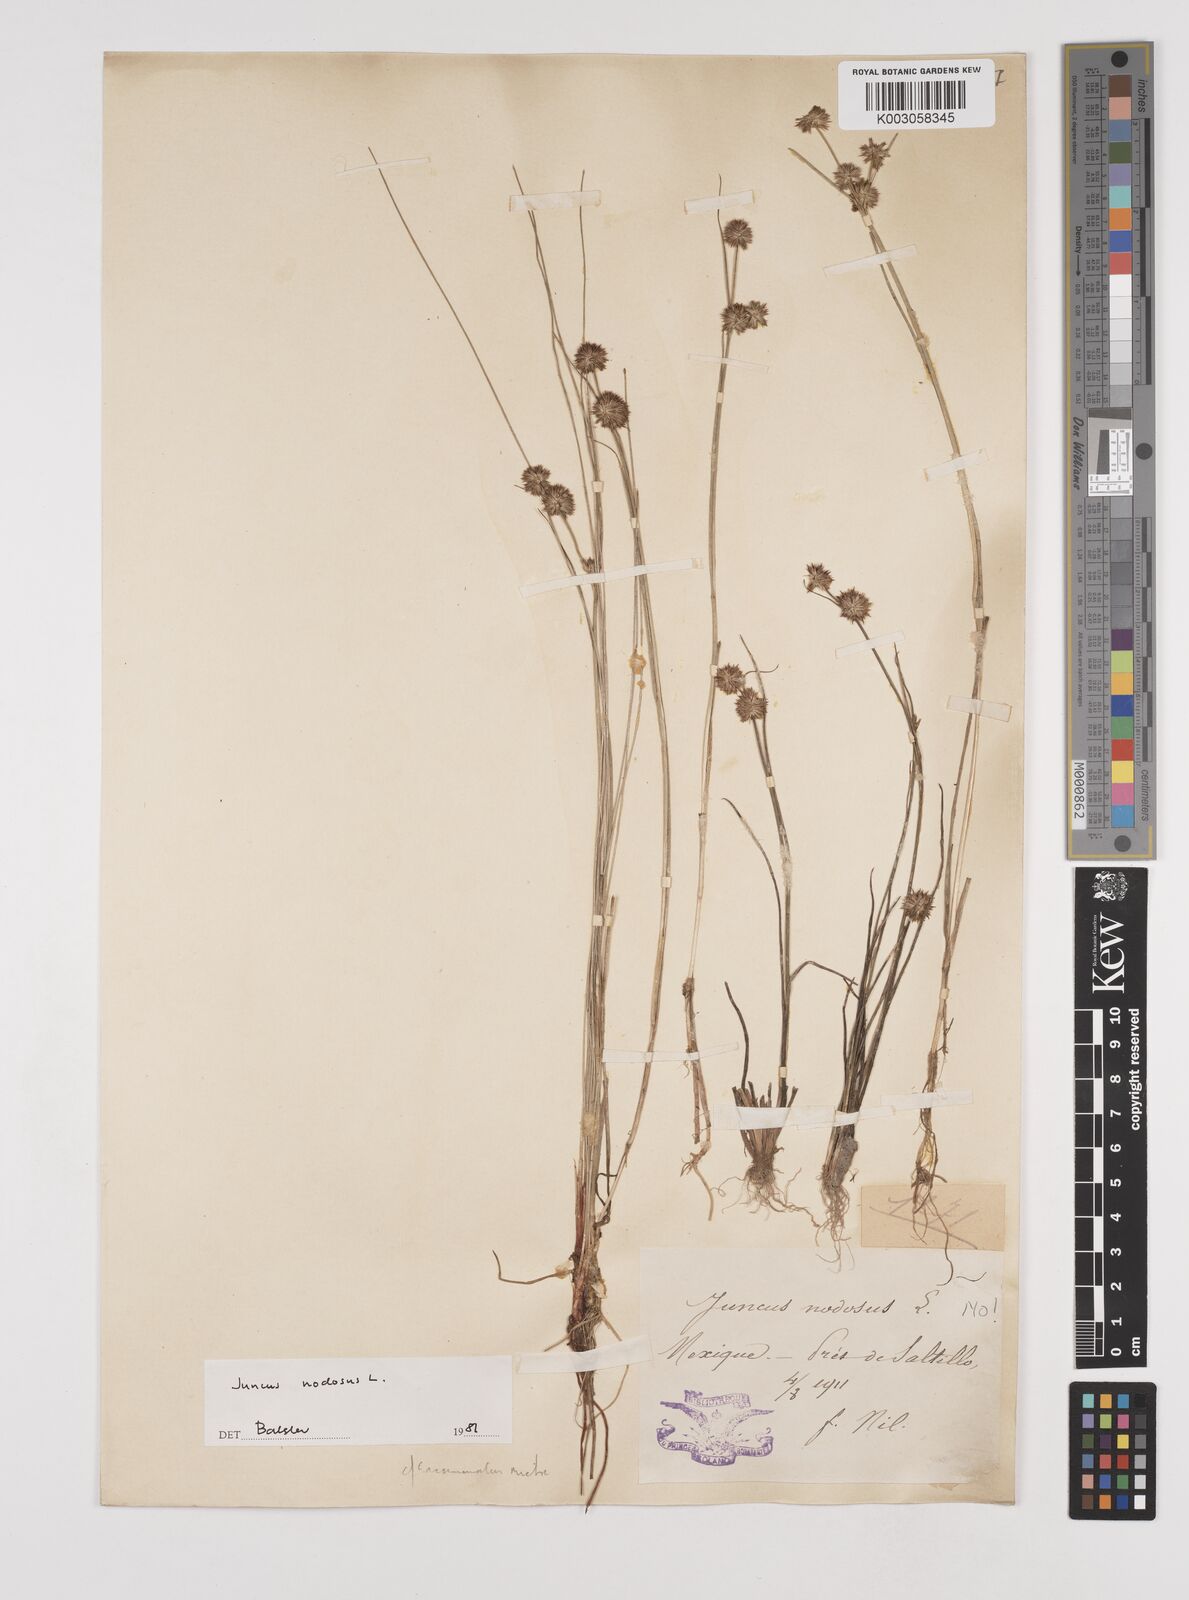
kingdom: Plantae
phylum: Tracheophyta
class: Liliopsida
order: Poales
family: Juncaceae
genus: Juncus
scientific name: Juncus nodosus
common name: Knotted rush
